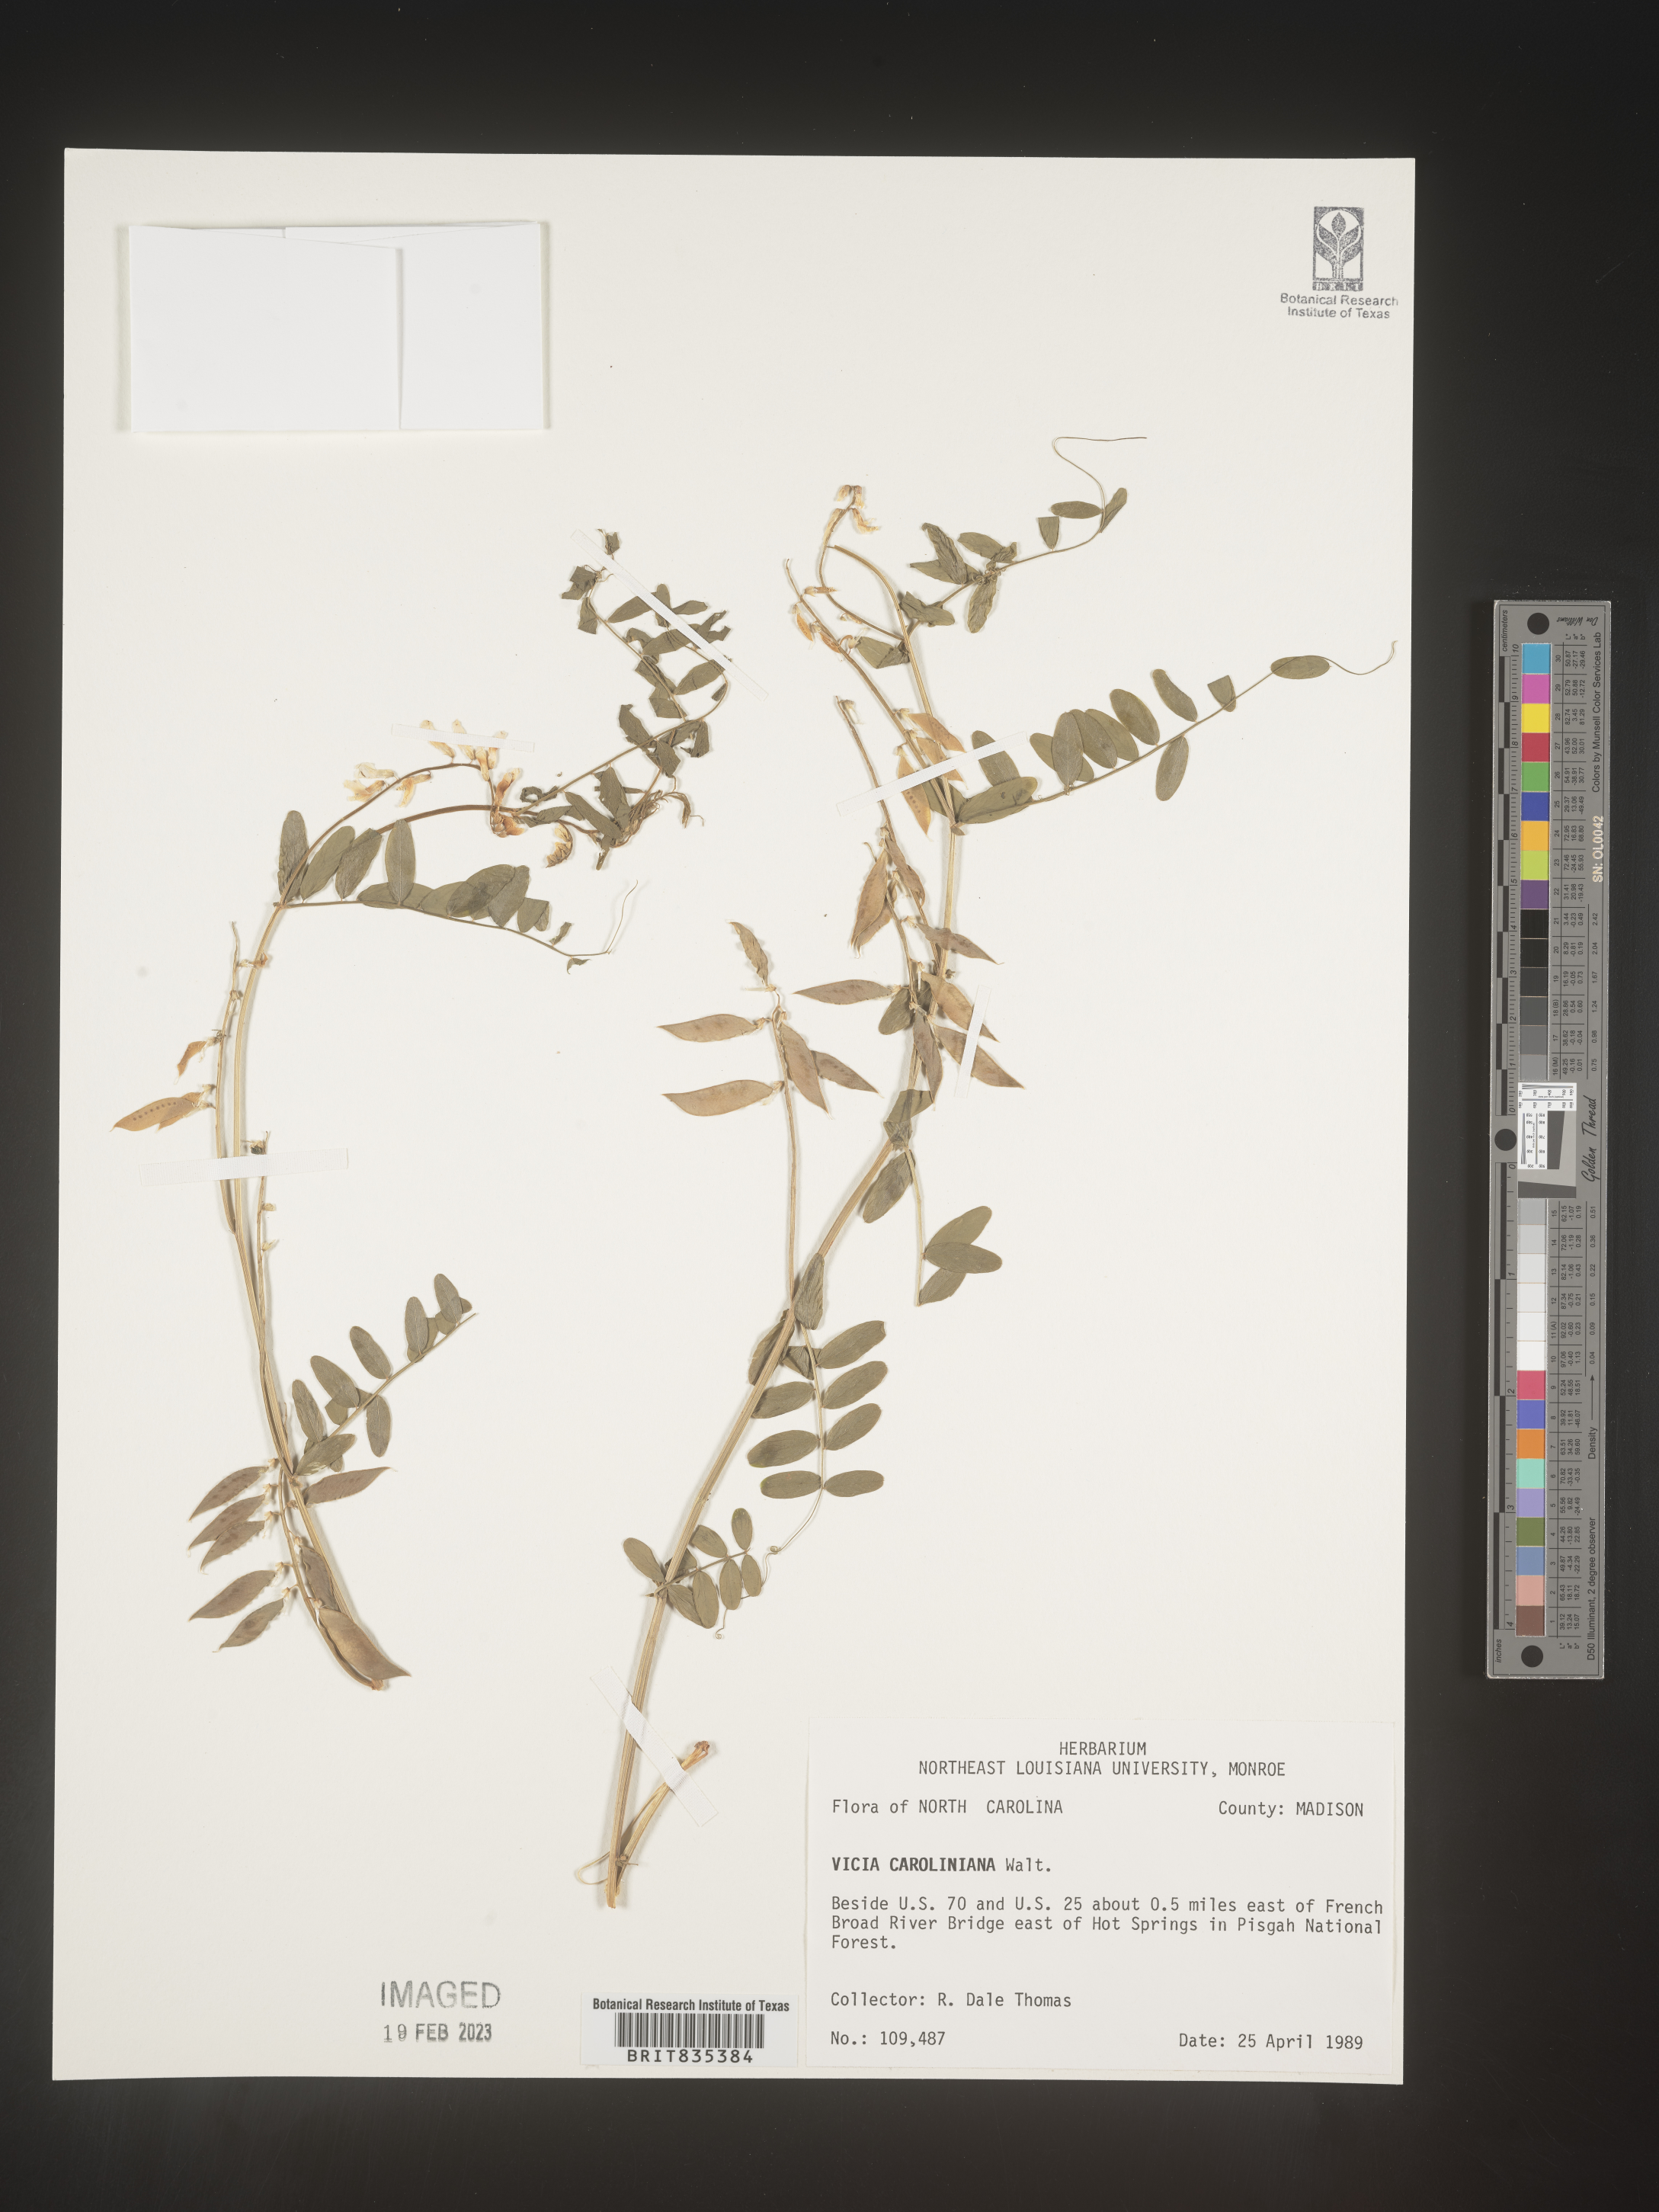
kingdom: Plantae
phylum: Tracheophyta
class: Magnoliopsida
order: Fabales
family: Fabaceae
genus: Vicia
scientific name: Vicia caroliniana
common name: Carolina vetch
